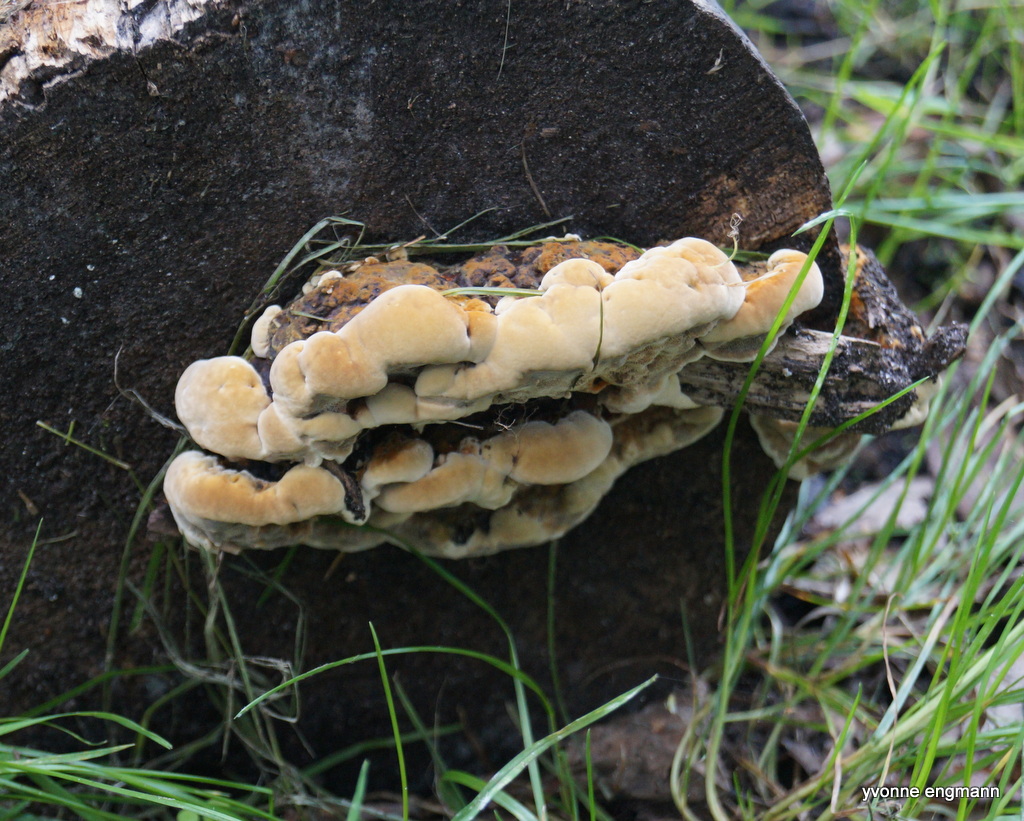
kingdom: Fungi
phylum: Basidiomycota
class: Agaricomycetes
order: Gloeophyllales
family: Gloeophyllaceae
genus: Gloeophyllum
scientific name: Gloeophyllum odoratum
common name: duftende korkhat
